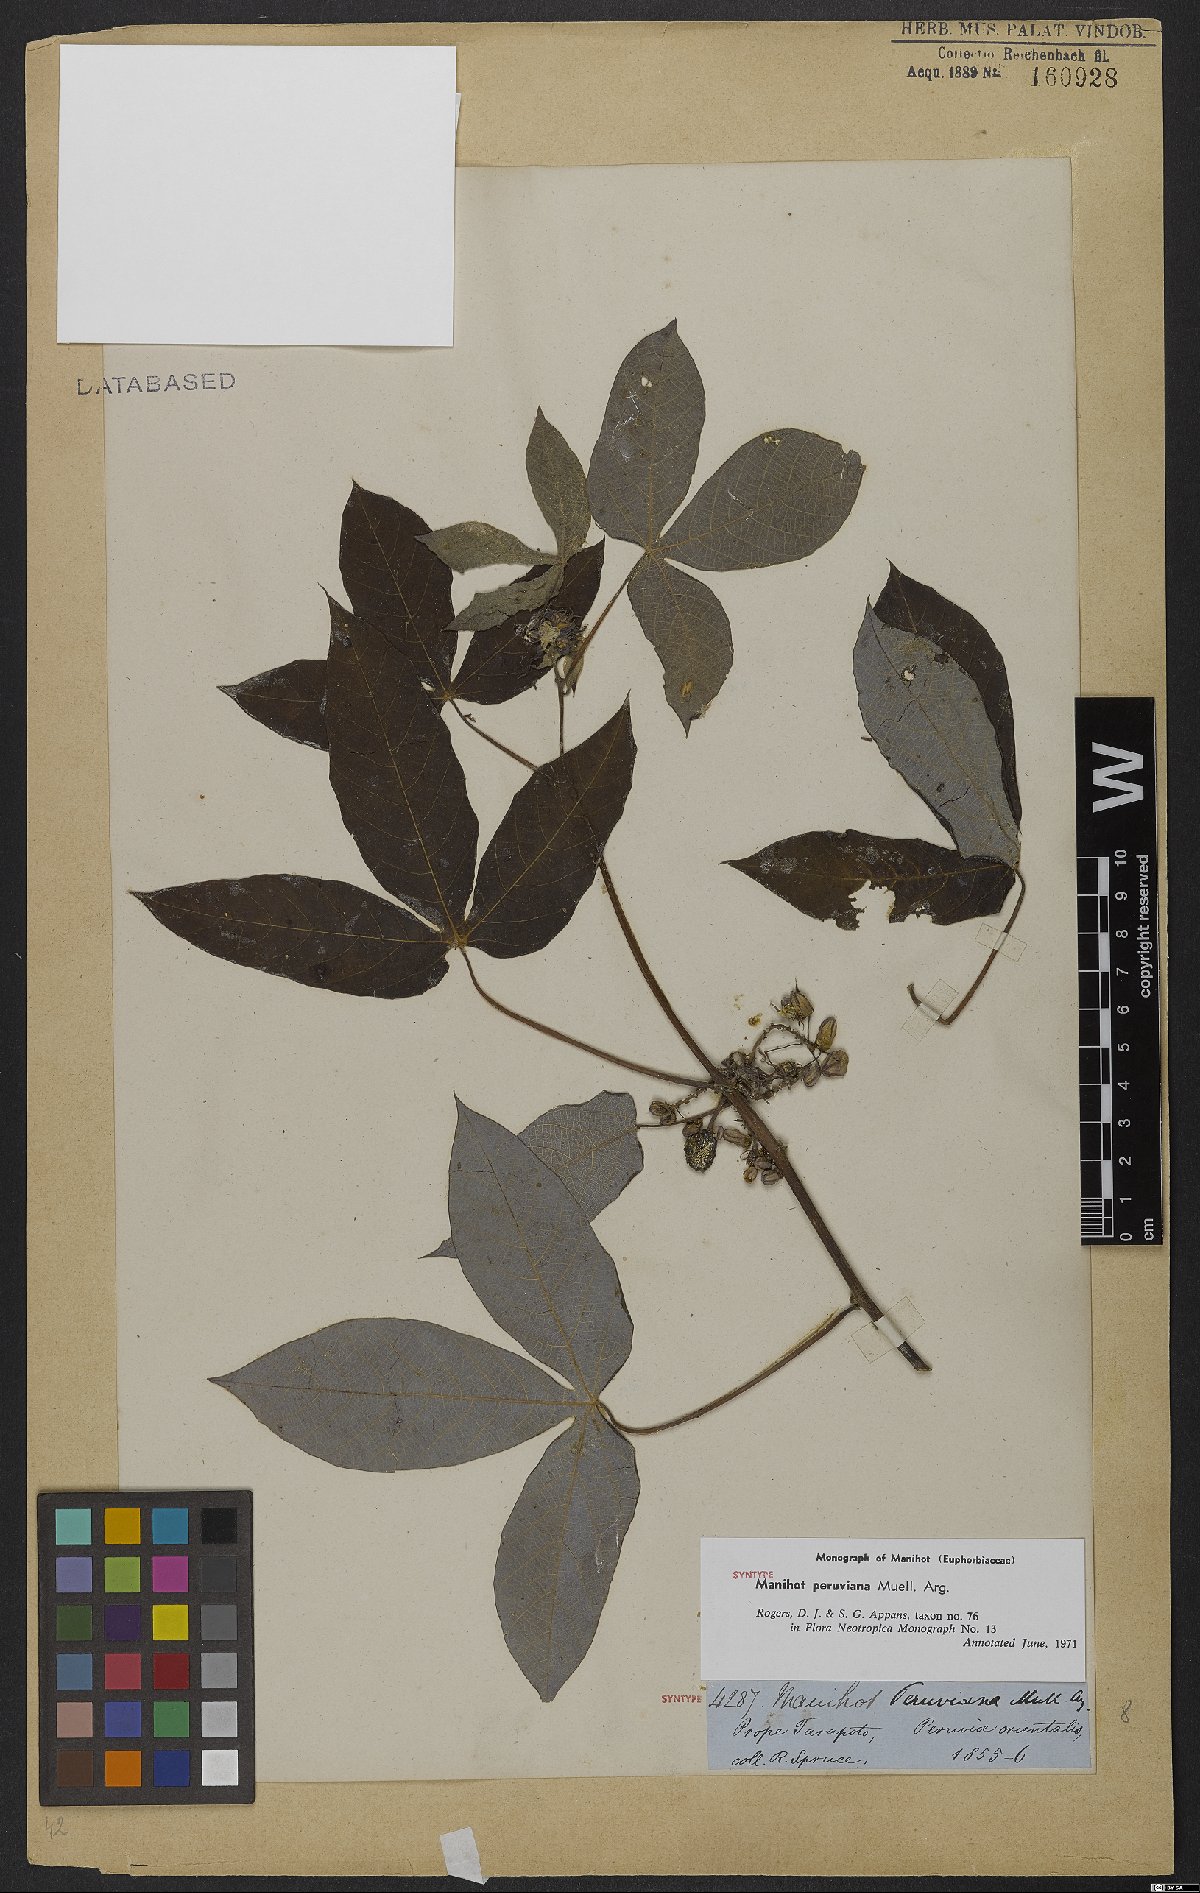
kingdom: Plantae
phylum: Tracheophyta
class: Magnoliopsida
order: Malpighiales
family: Euphorbiaceae
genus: Manihot
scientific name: Manihot peruviana
